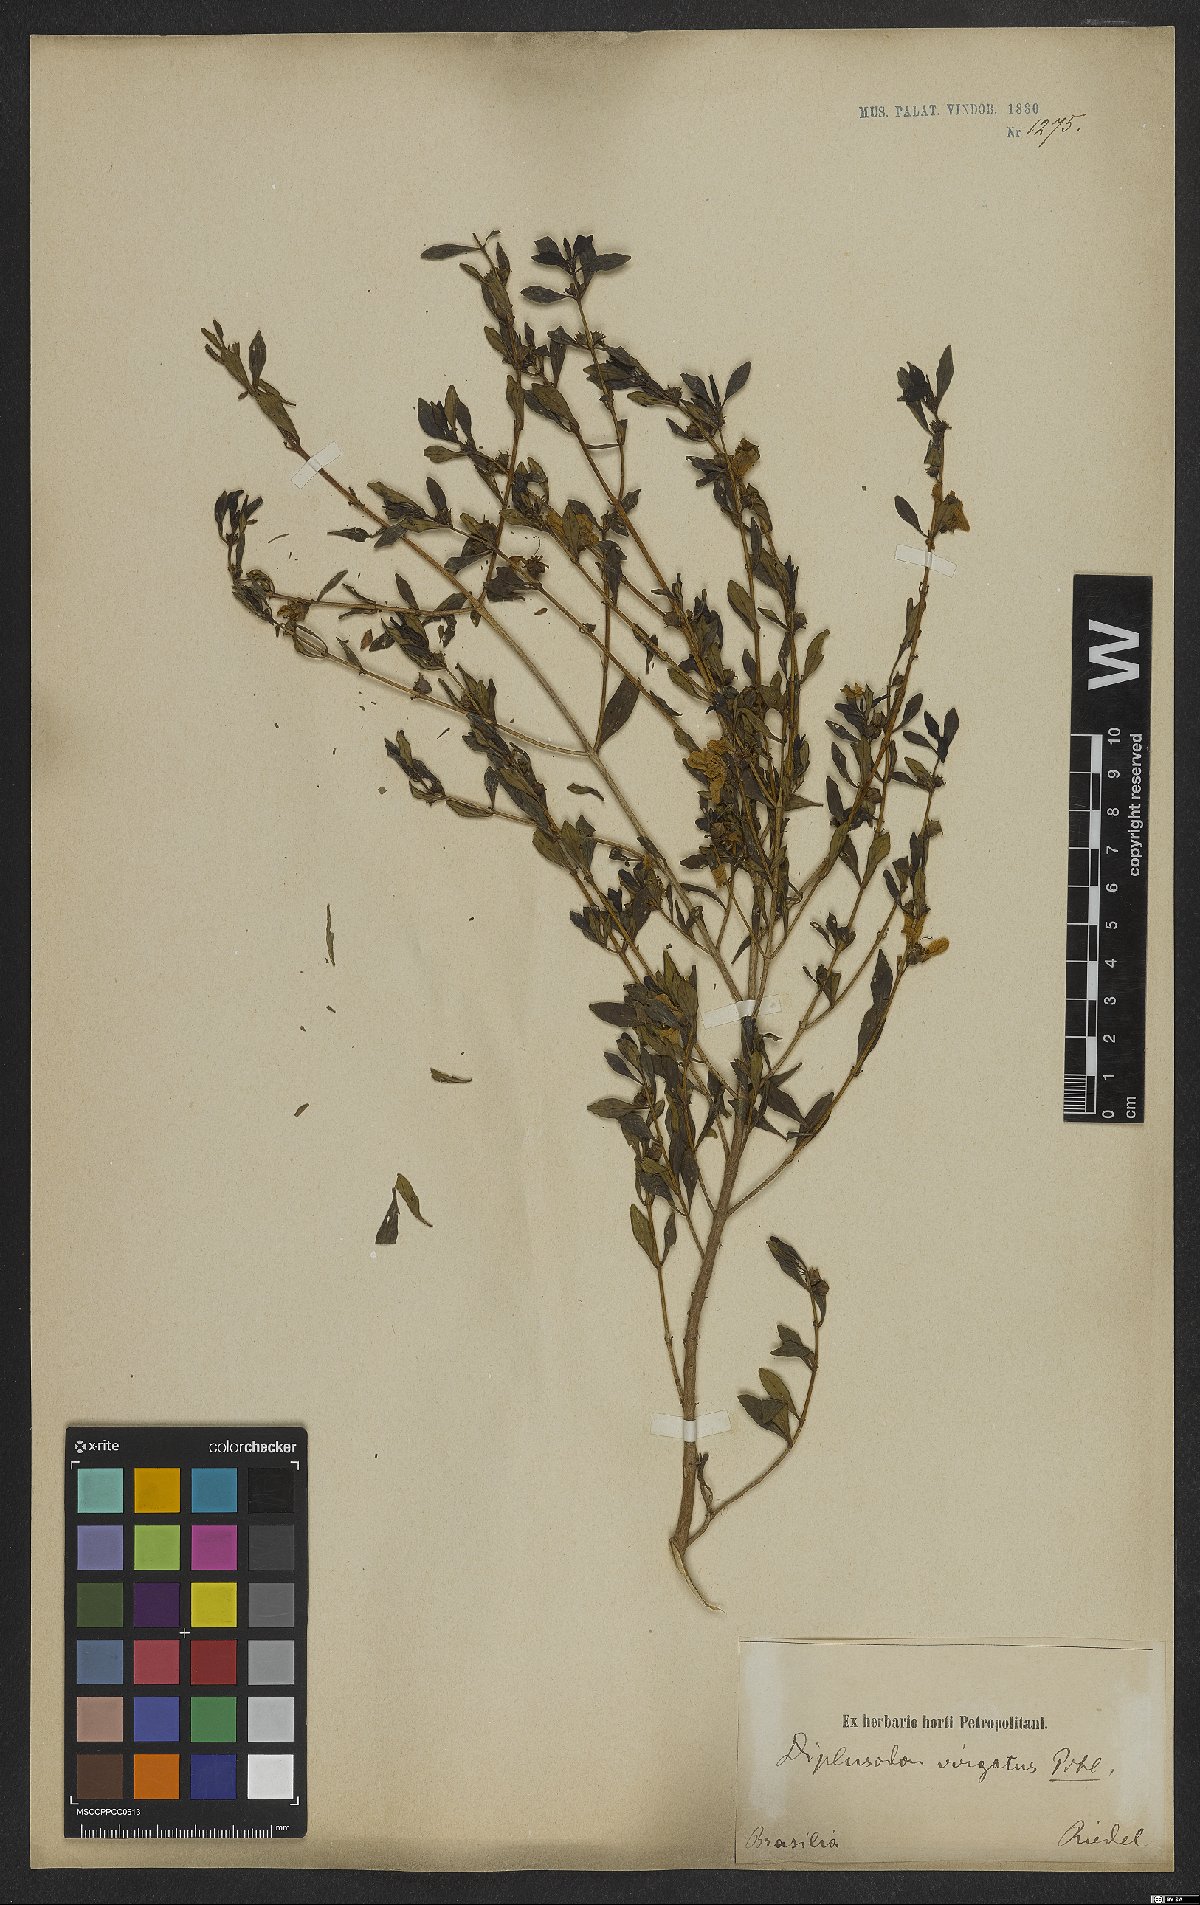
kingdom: Plantae
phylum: Tracheophyta
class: Magnoliopsida
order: Myrtales
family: Lythraceae
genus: Diplusodon
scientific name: Diplusodon virgatus
